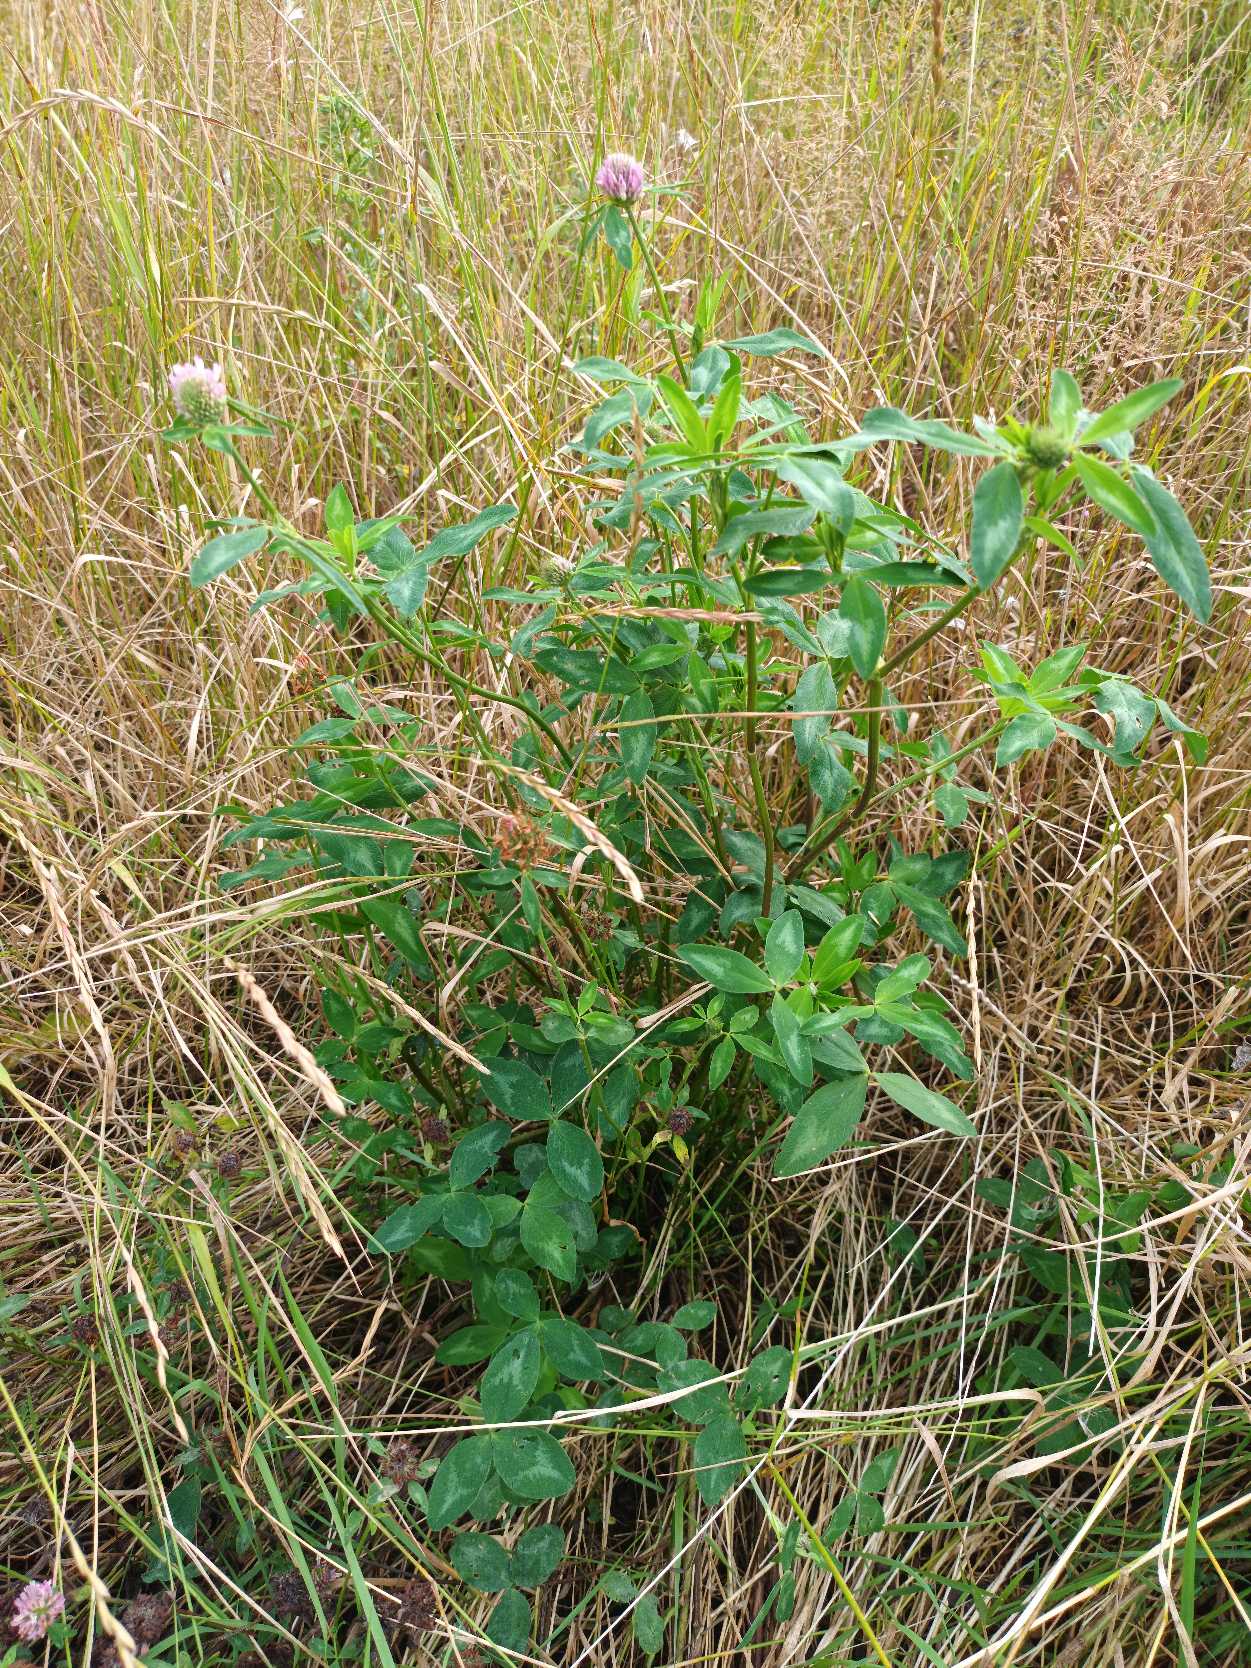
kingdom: Plantae
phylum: Tracheophyta
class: Magnoliopsida
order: Fabales
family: Fabaceae
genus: Trifolium
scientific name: Trifolium medium
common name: Bugtet kløver
